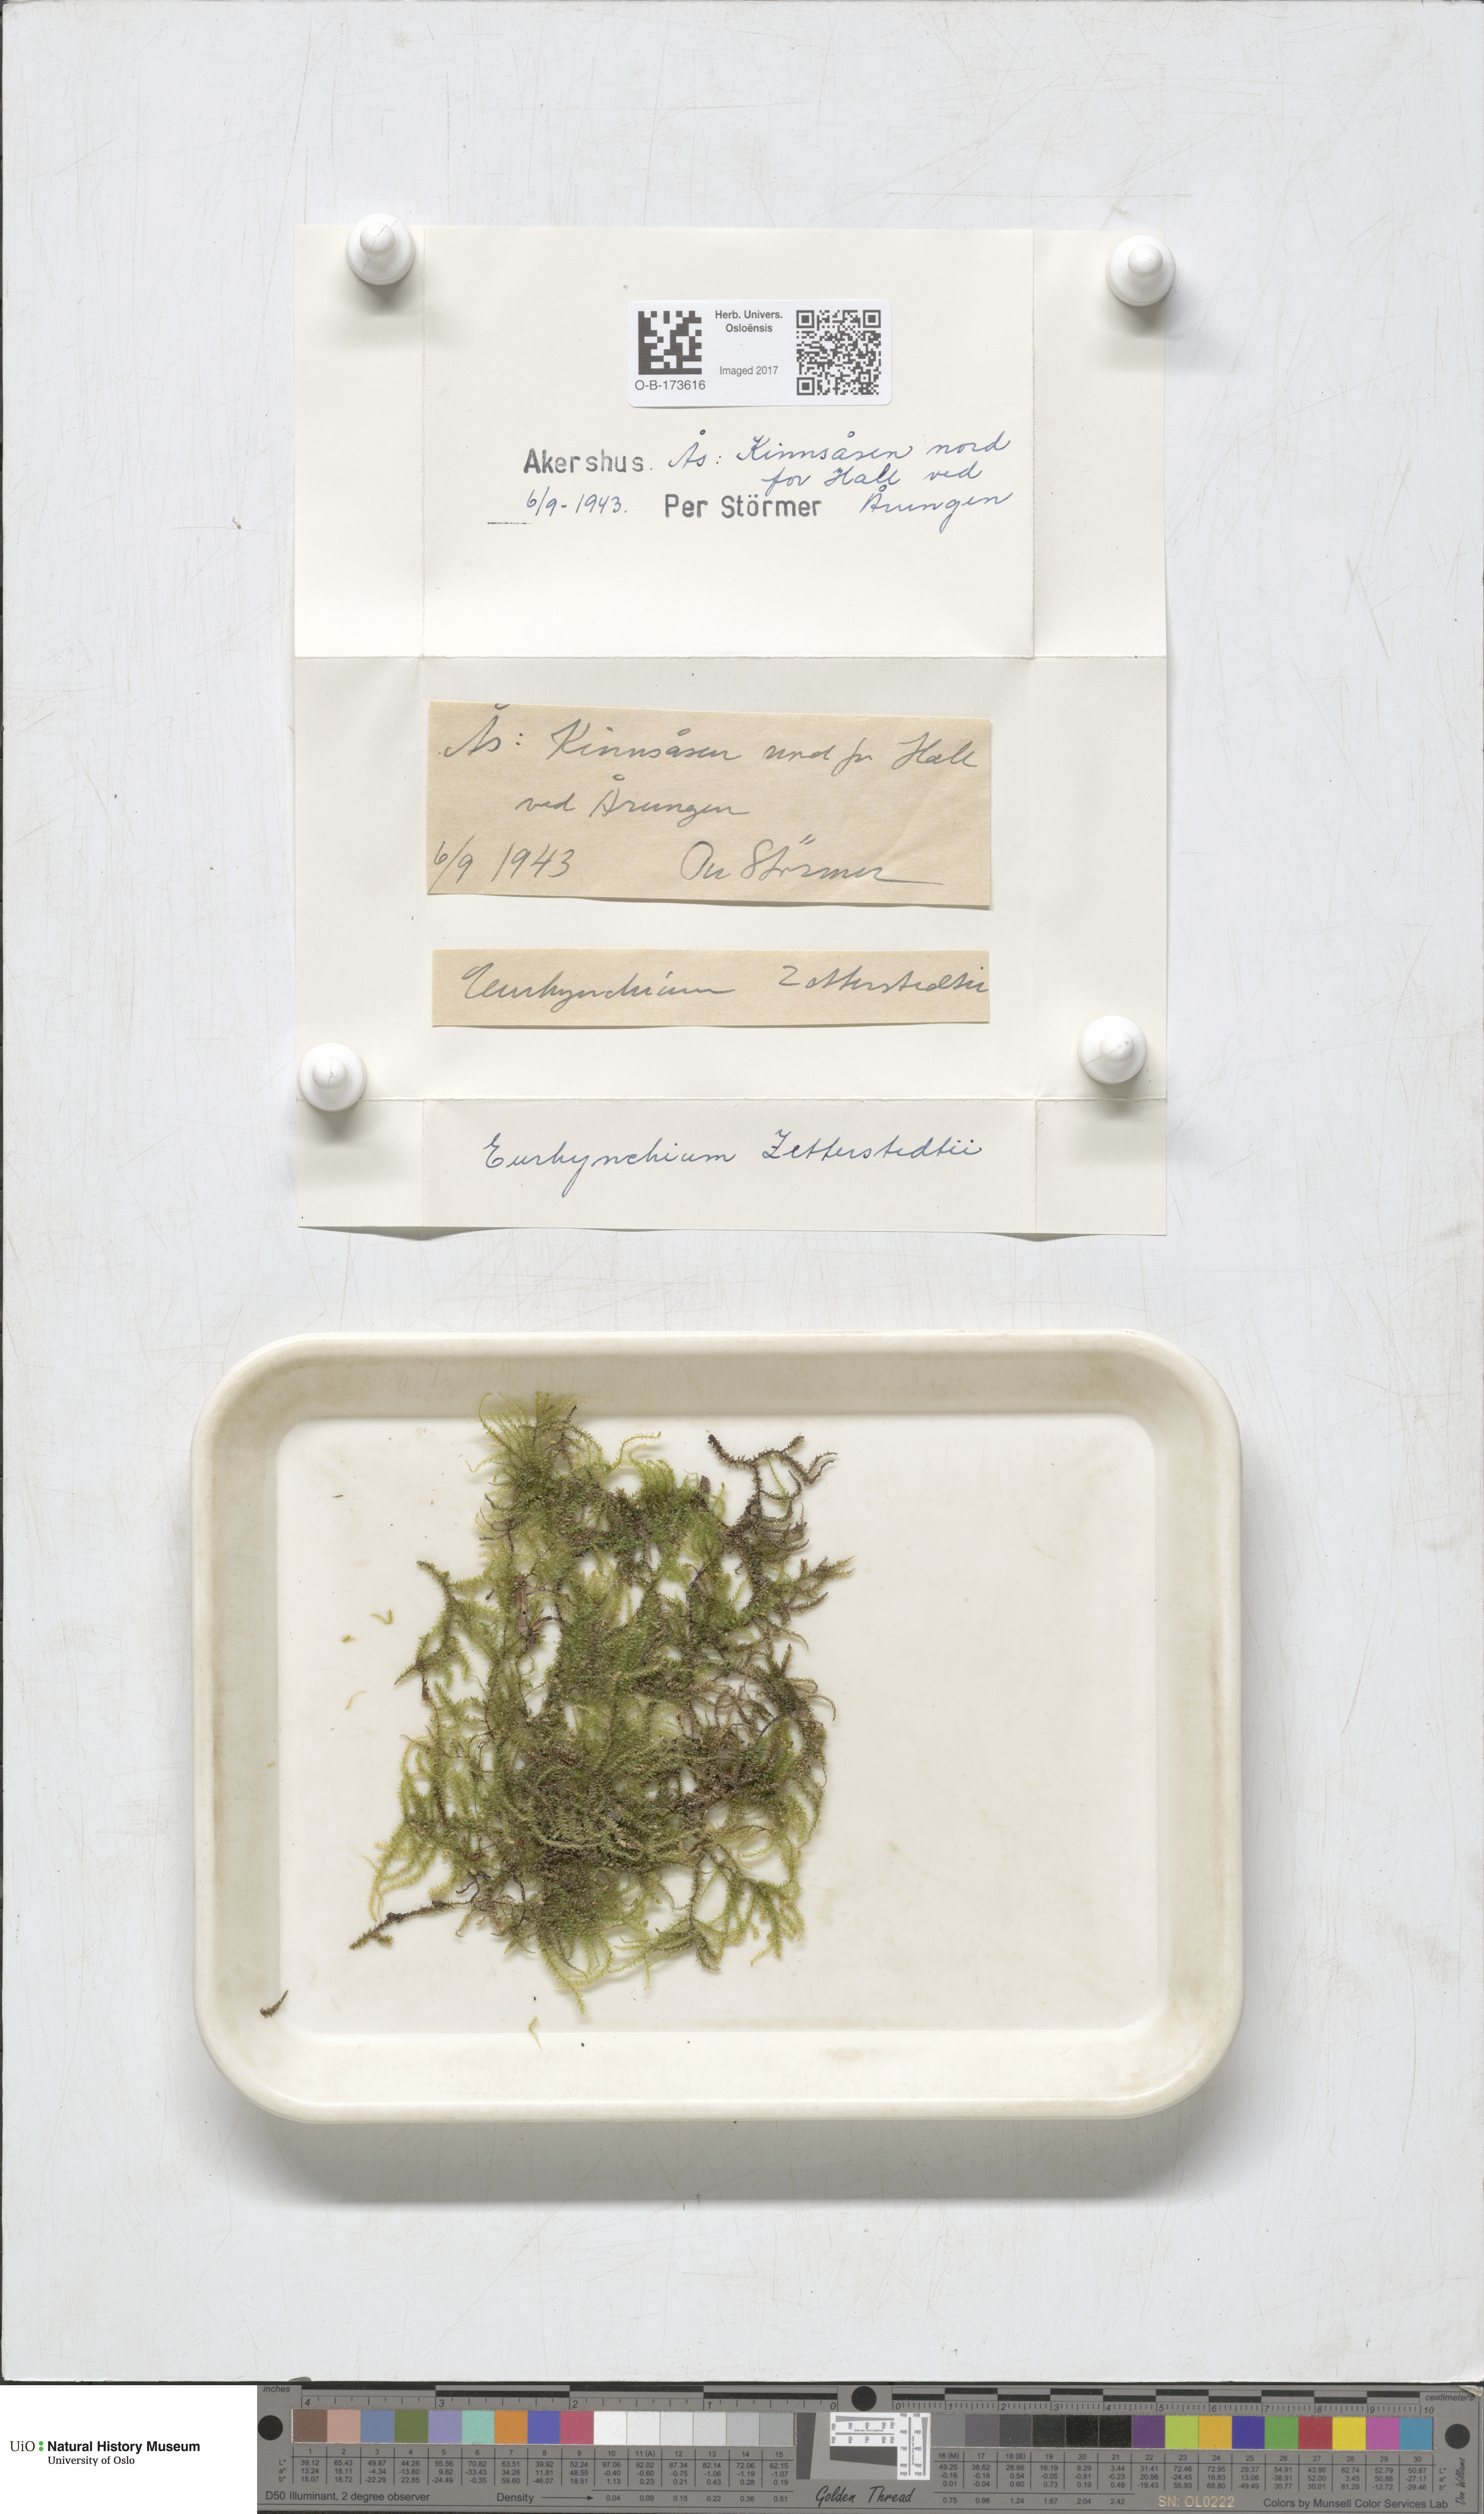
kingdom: Plantae
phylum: Bryophyta
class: Bryopsida
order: Hypnales
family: Brachytheciaceae
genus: Eurhynchium
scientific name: Eurhynchium angustirete
